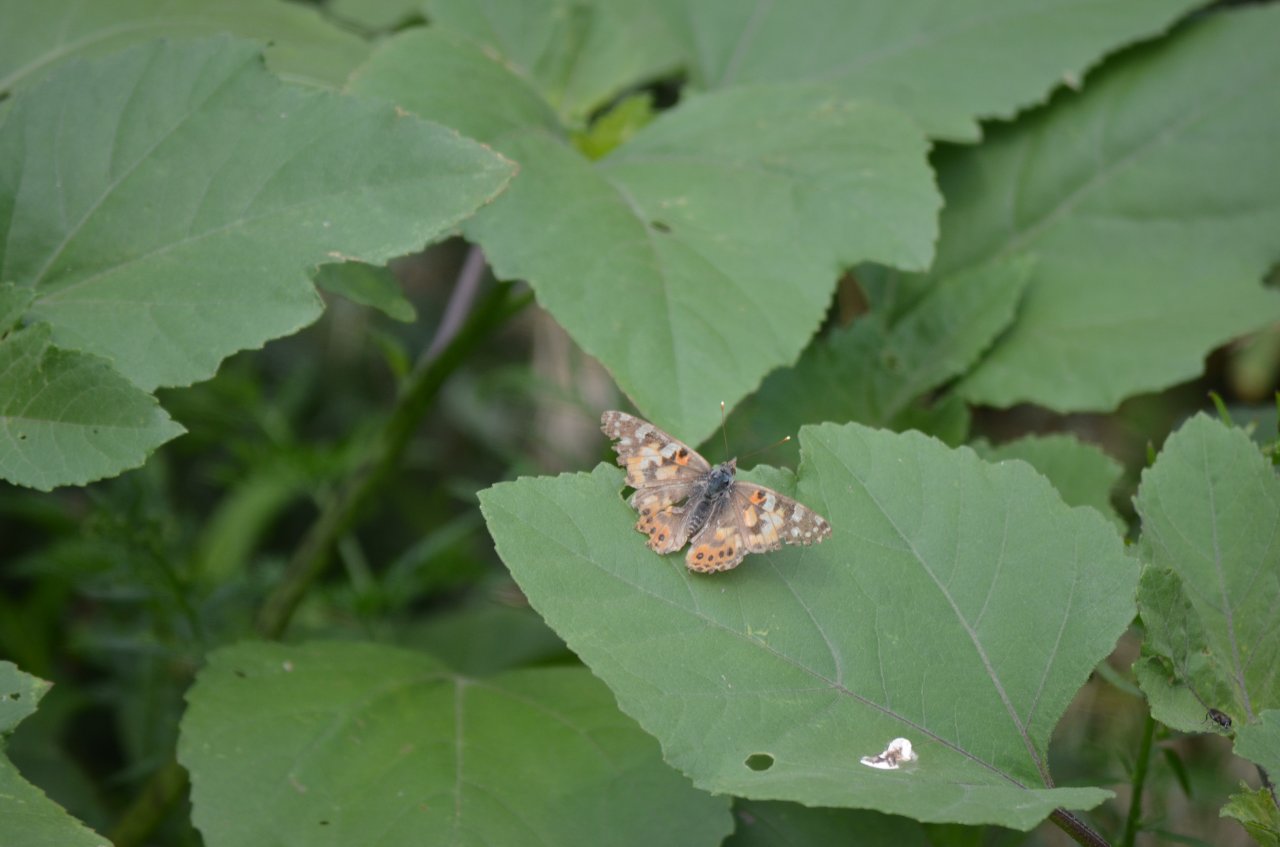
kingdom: Animalia
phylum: Arthropoda
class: Insecta
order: Lepidoptera
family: Nymphalidae
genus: Vanessa
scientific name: Vanessa cardui
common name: Painted Lady
